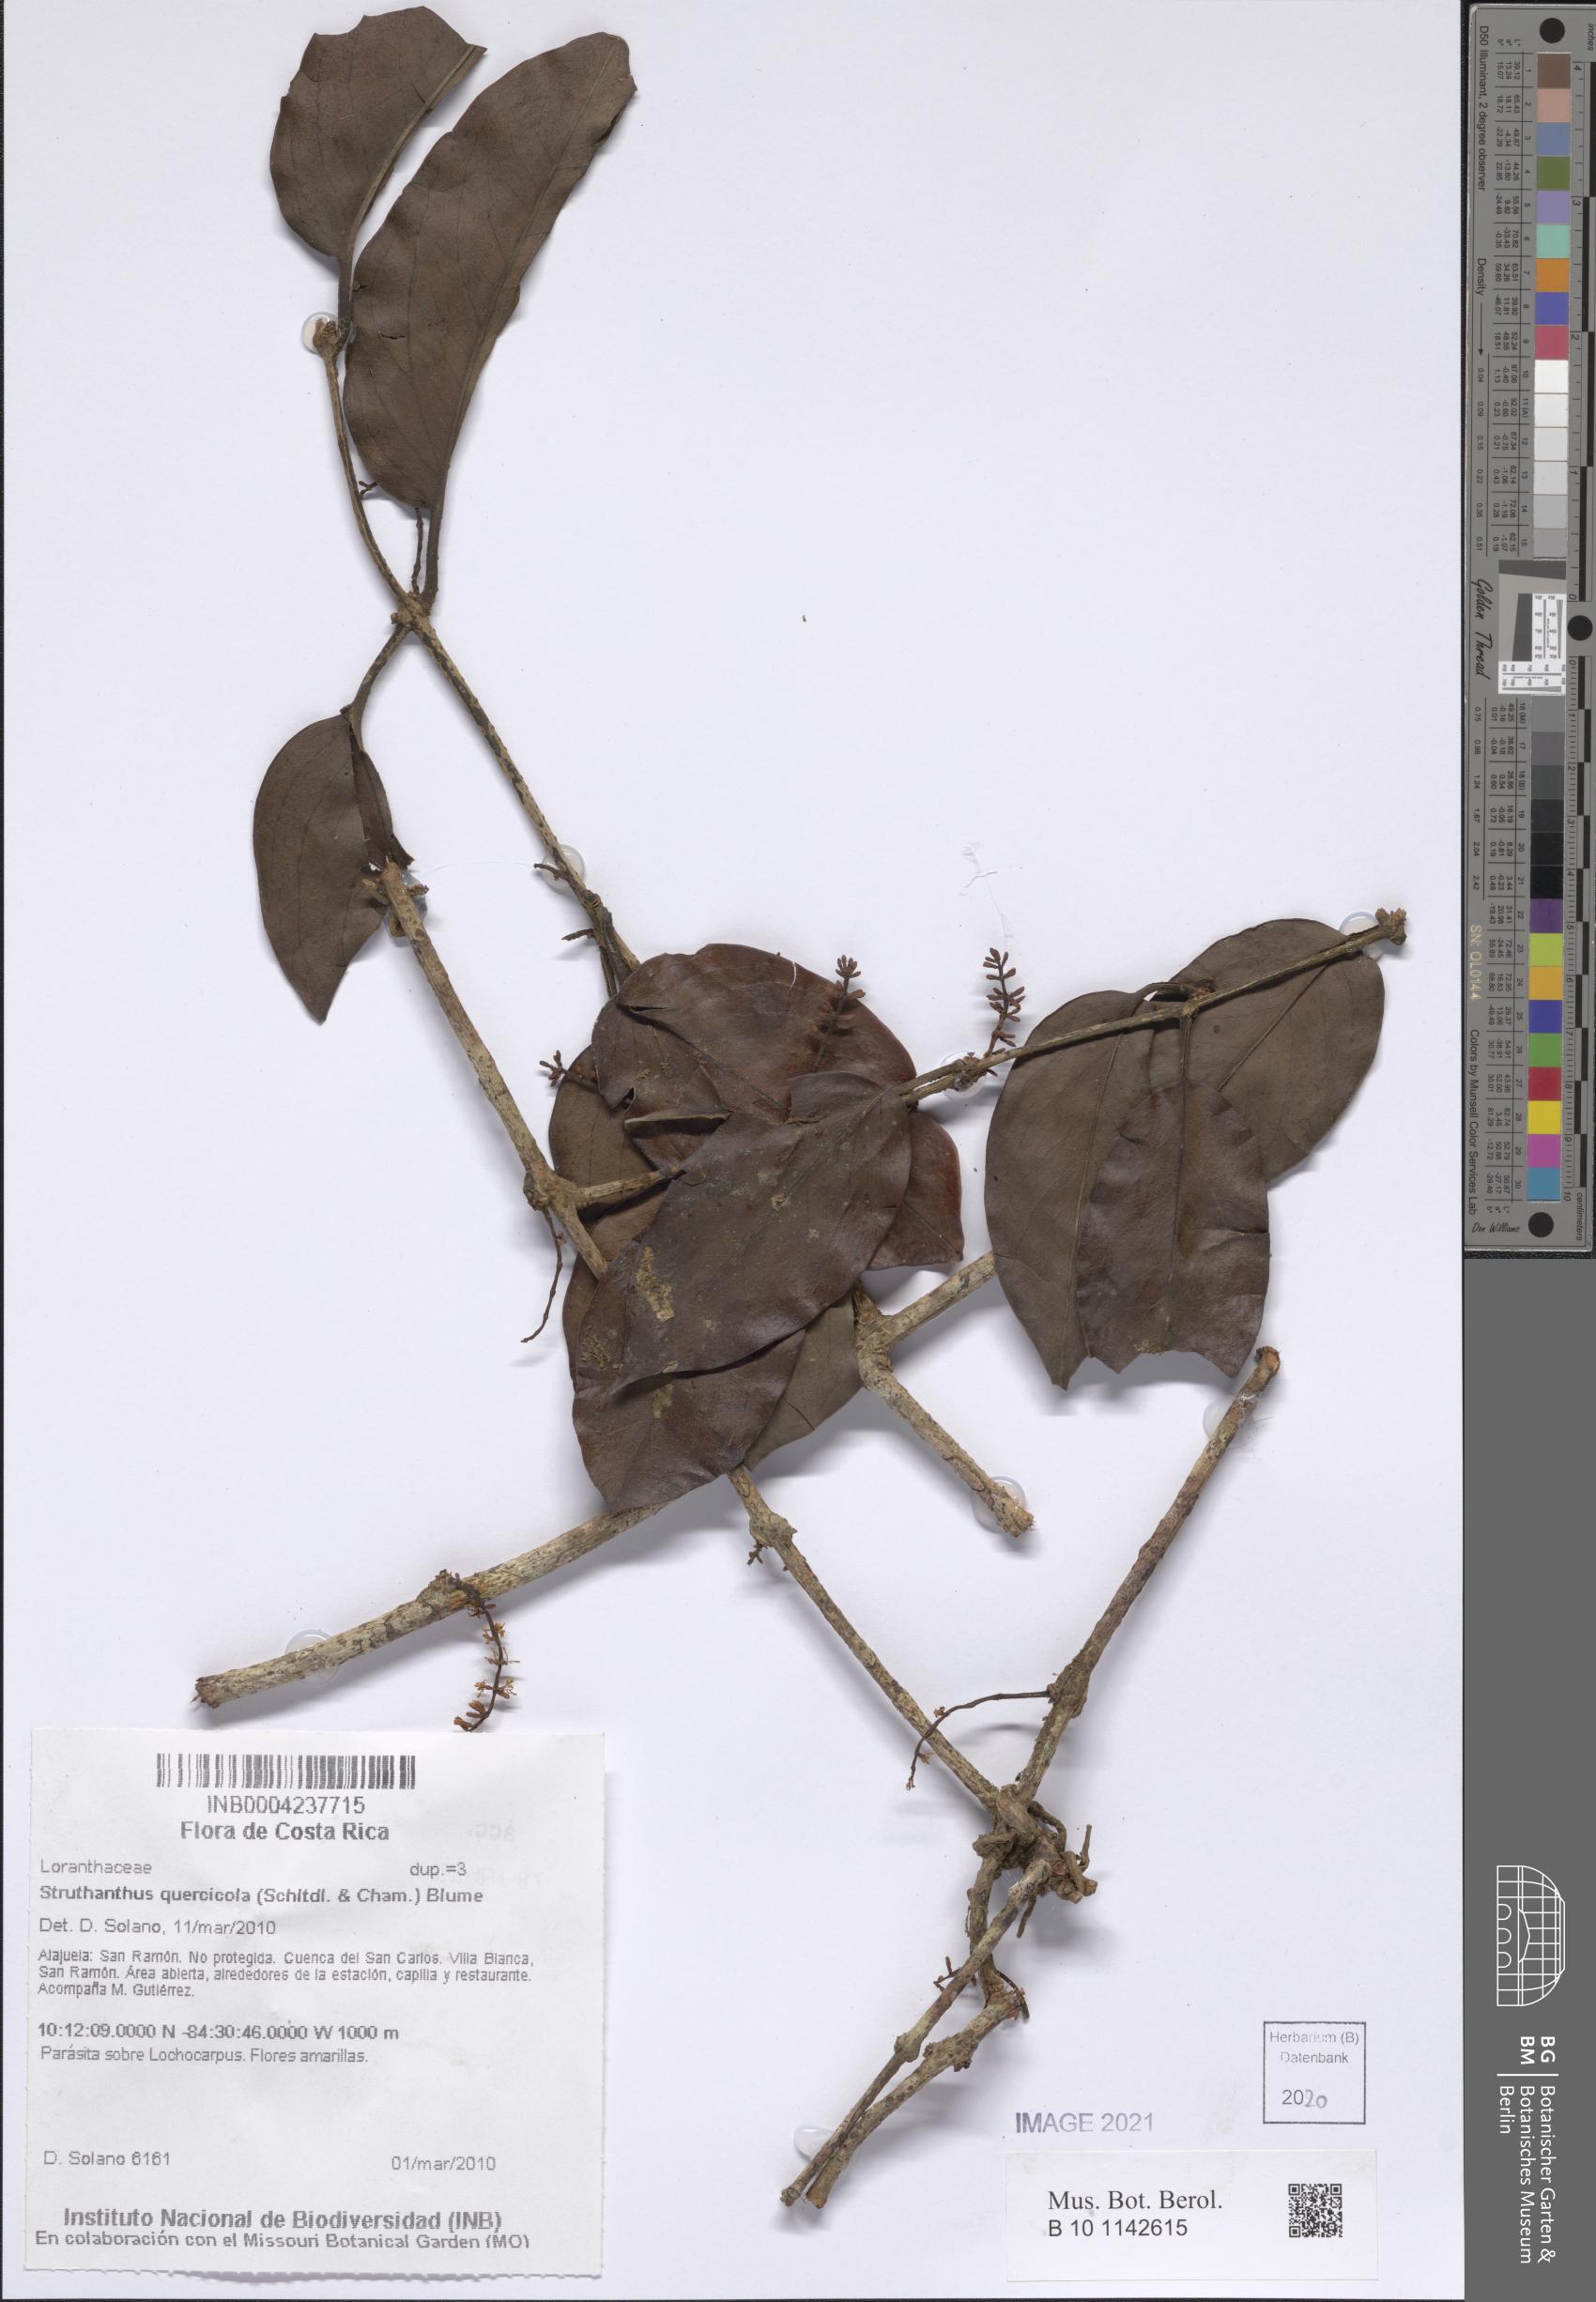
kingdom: Plantae
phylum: Tracheophyta
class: Magnoliopsida
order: Santalales
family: Loranthaceae
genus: Struthanthus
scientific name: Struthanthus quercicola
